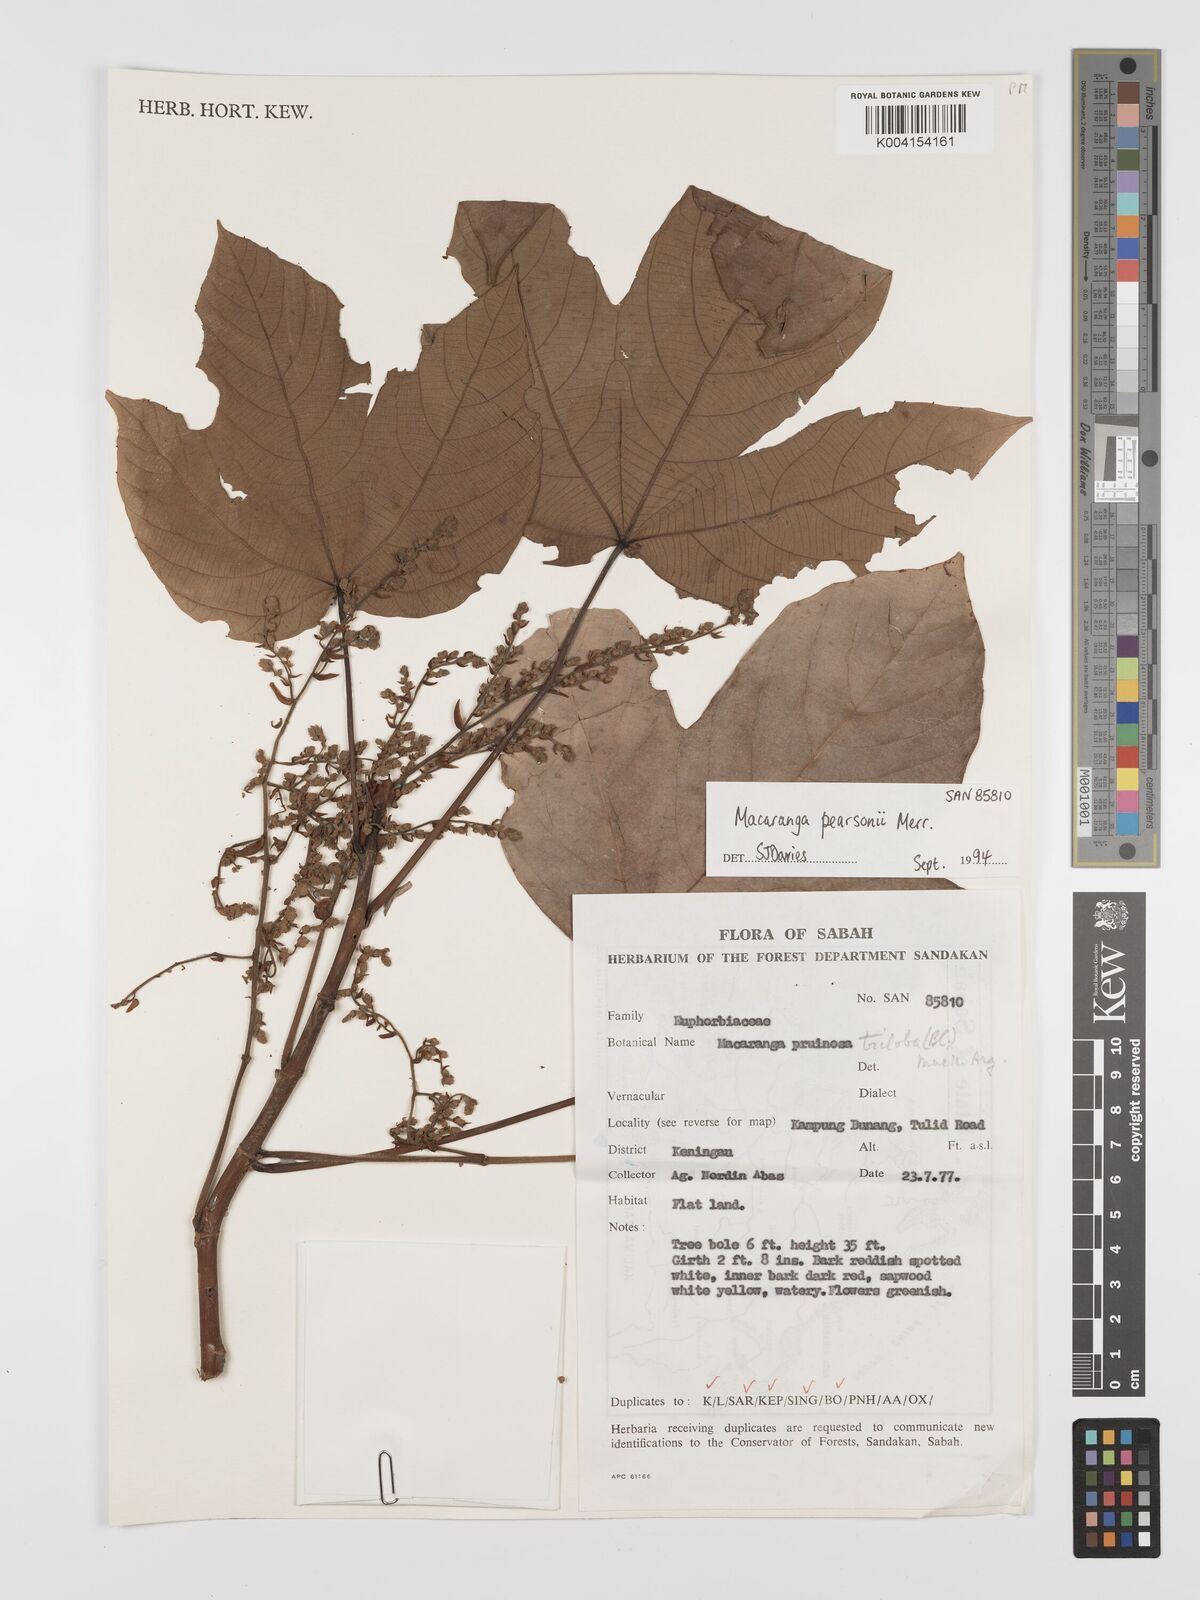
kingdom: Plantae
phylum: Tracheophyta
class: Magnoliopsida
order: Malpighiales
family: Euphorbiaceae
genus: Macaranga
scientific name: Macaranga pearsonii
